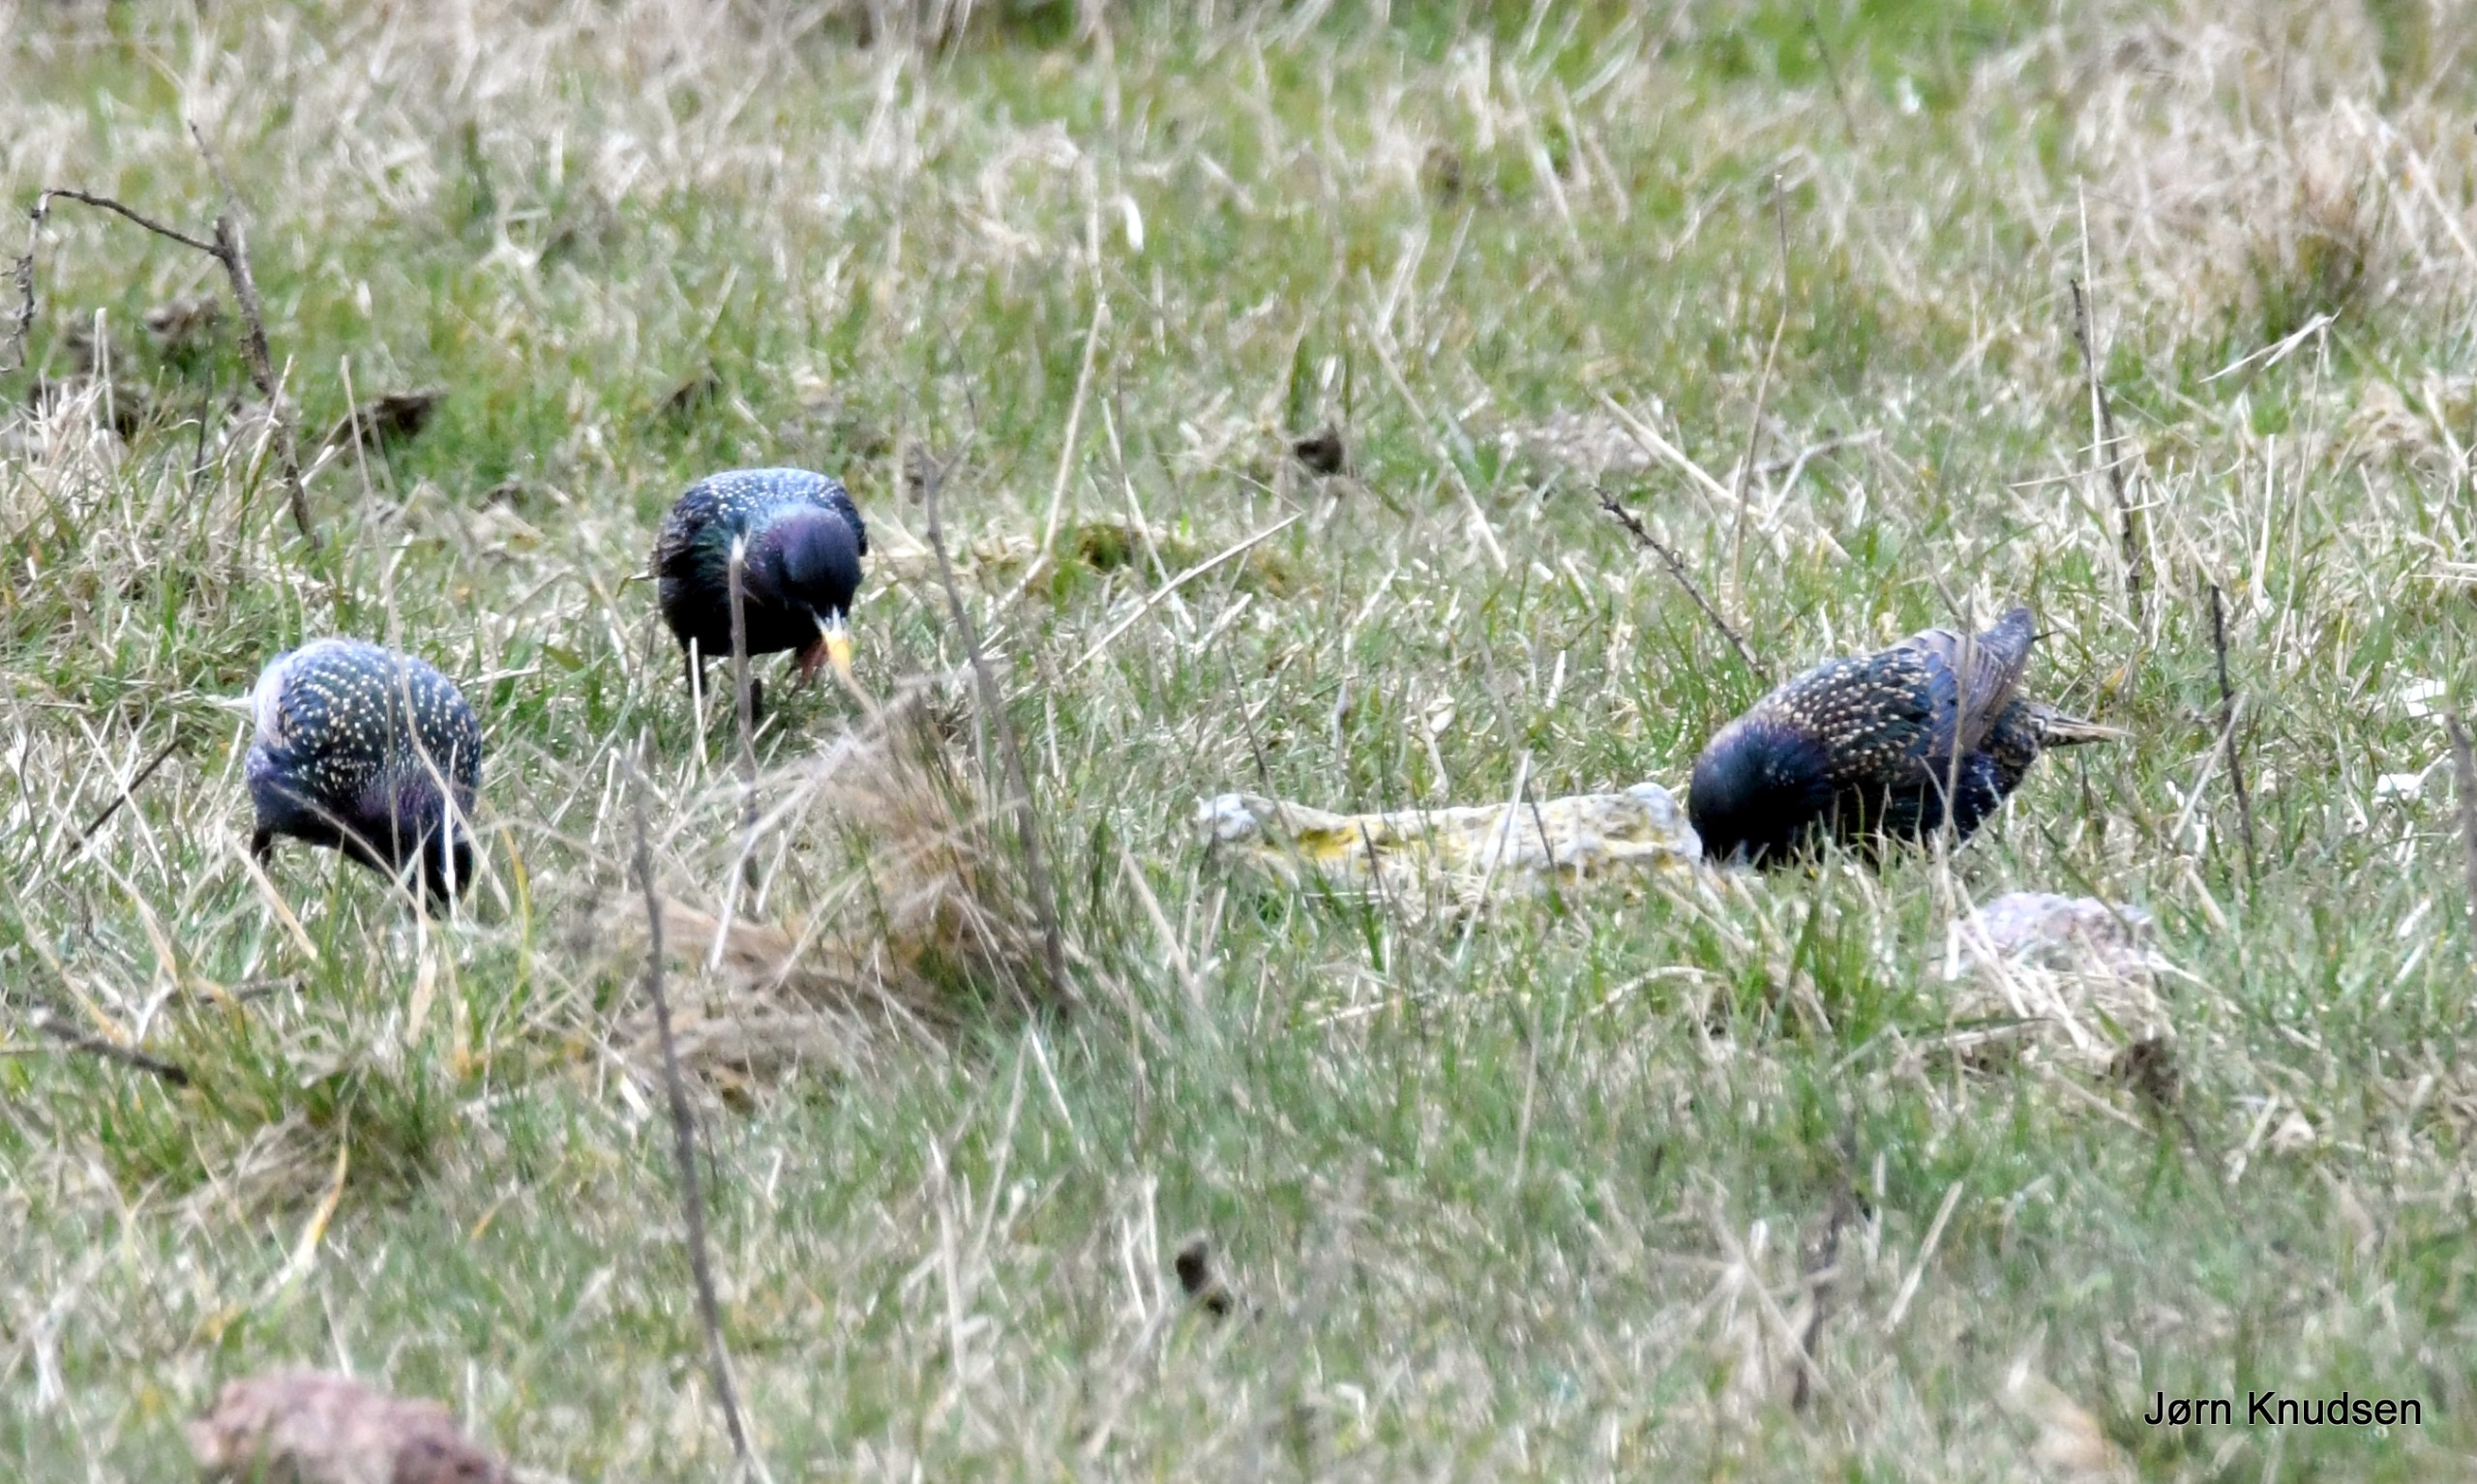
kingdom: Animalia
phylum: Chordata
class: Aves
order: Passeriformes
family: Sturnidae
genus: Sturnus
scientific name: Sturnus vulgaris
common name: Stær
